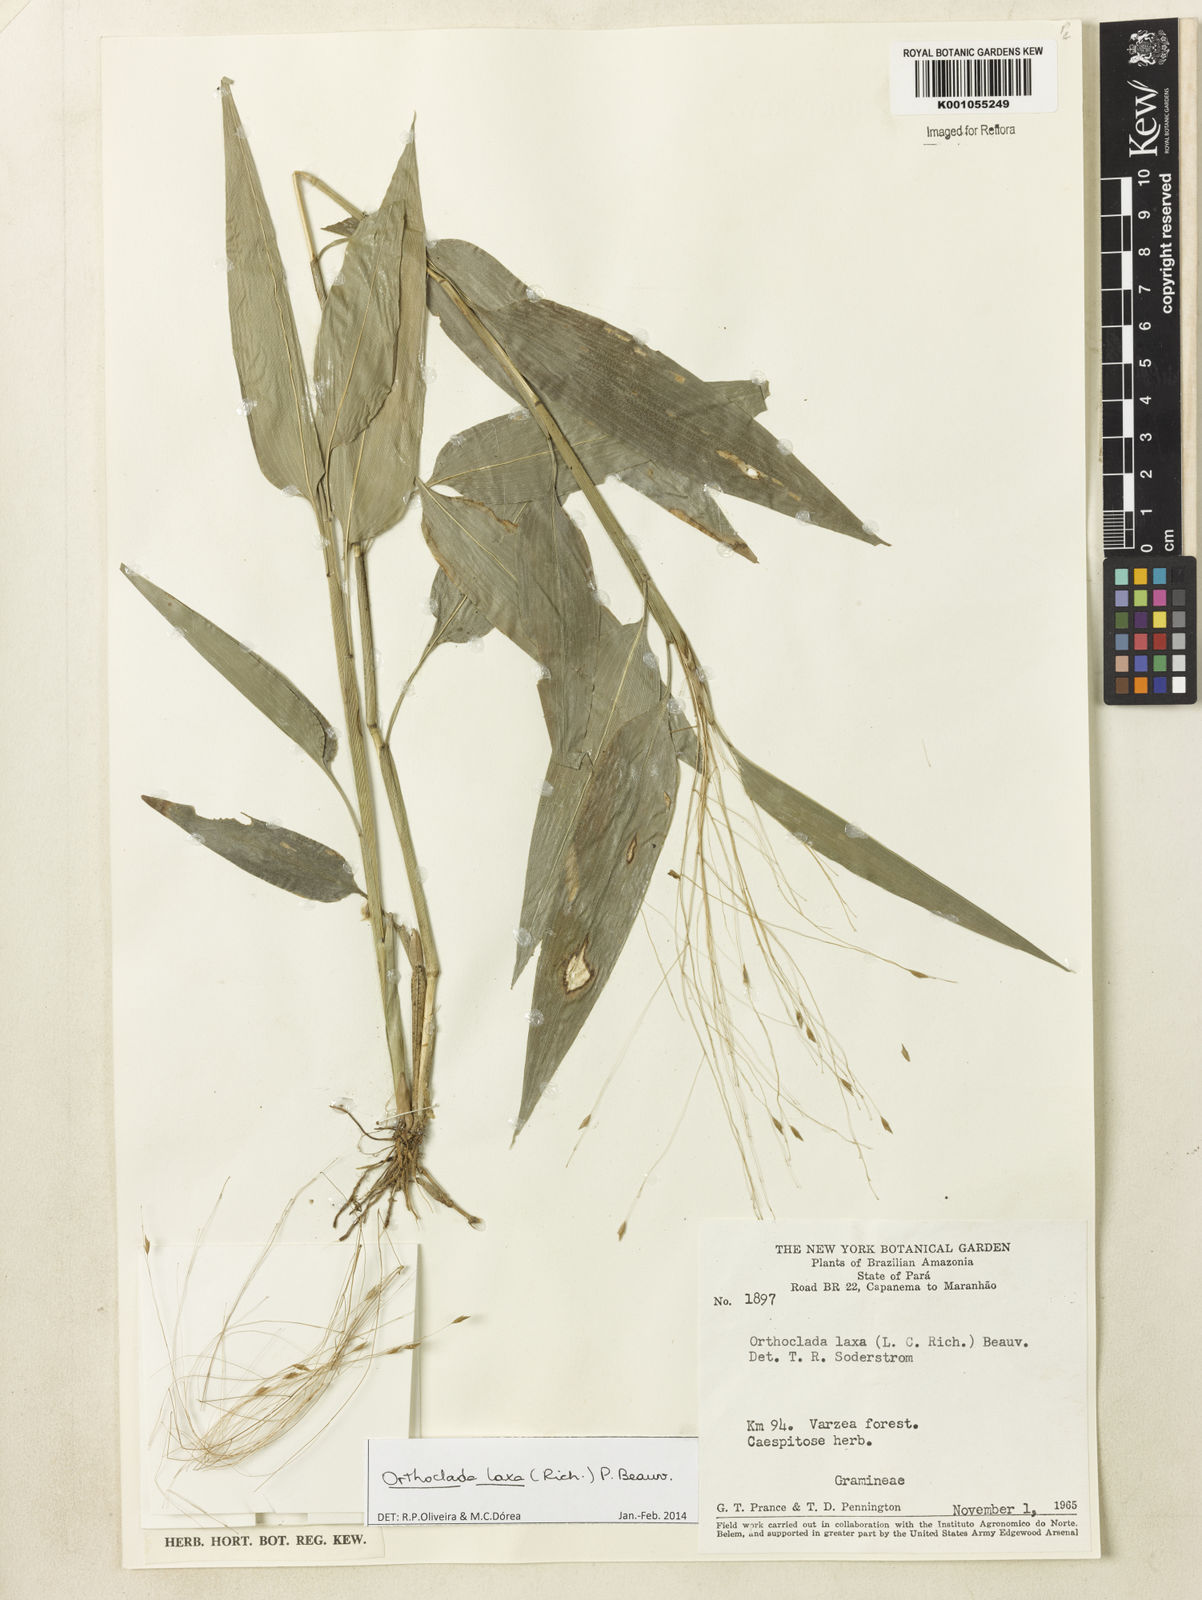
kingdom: Plantae
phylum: Tracheophyta
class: Liliopsida
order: Poales
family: Poaceae
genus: Orthoclada
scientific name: Orthoclada laxa
